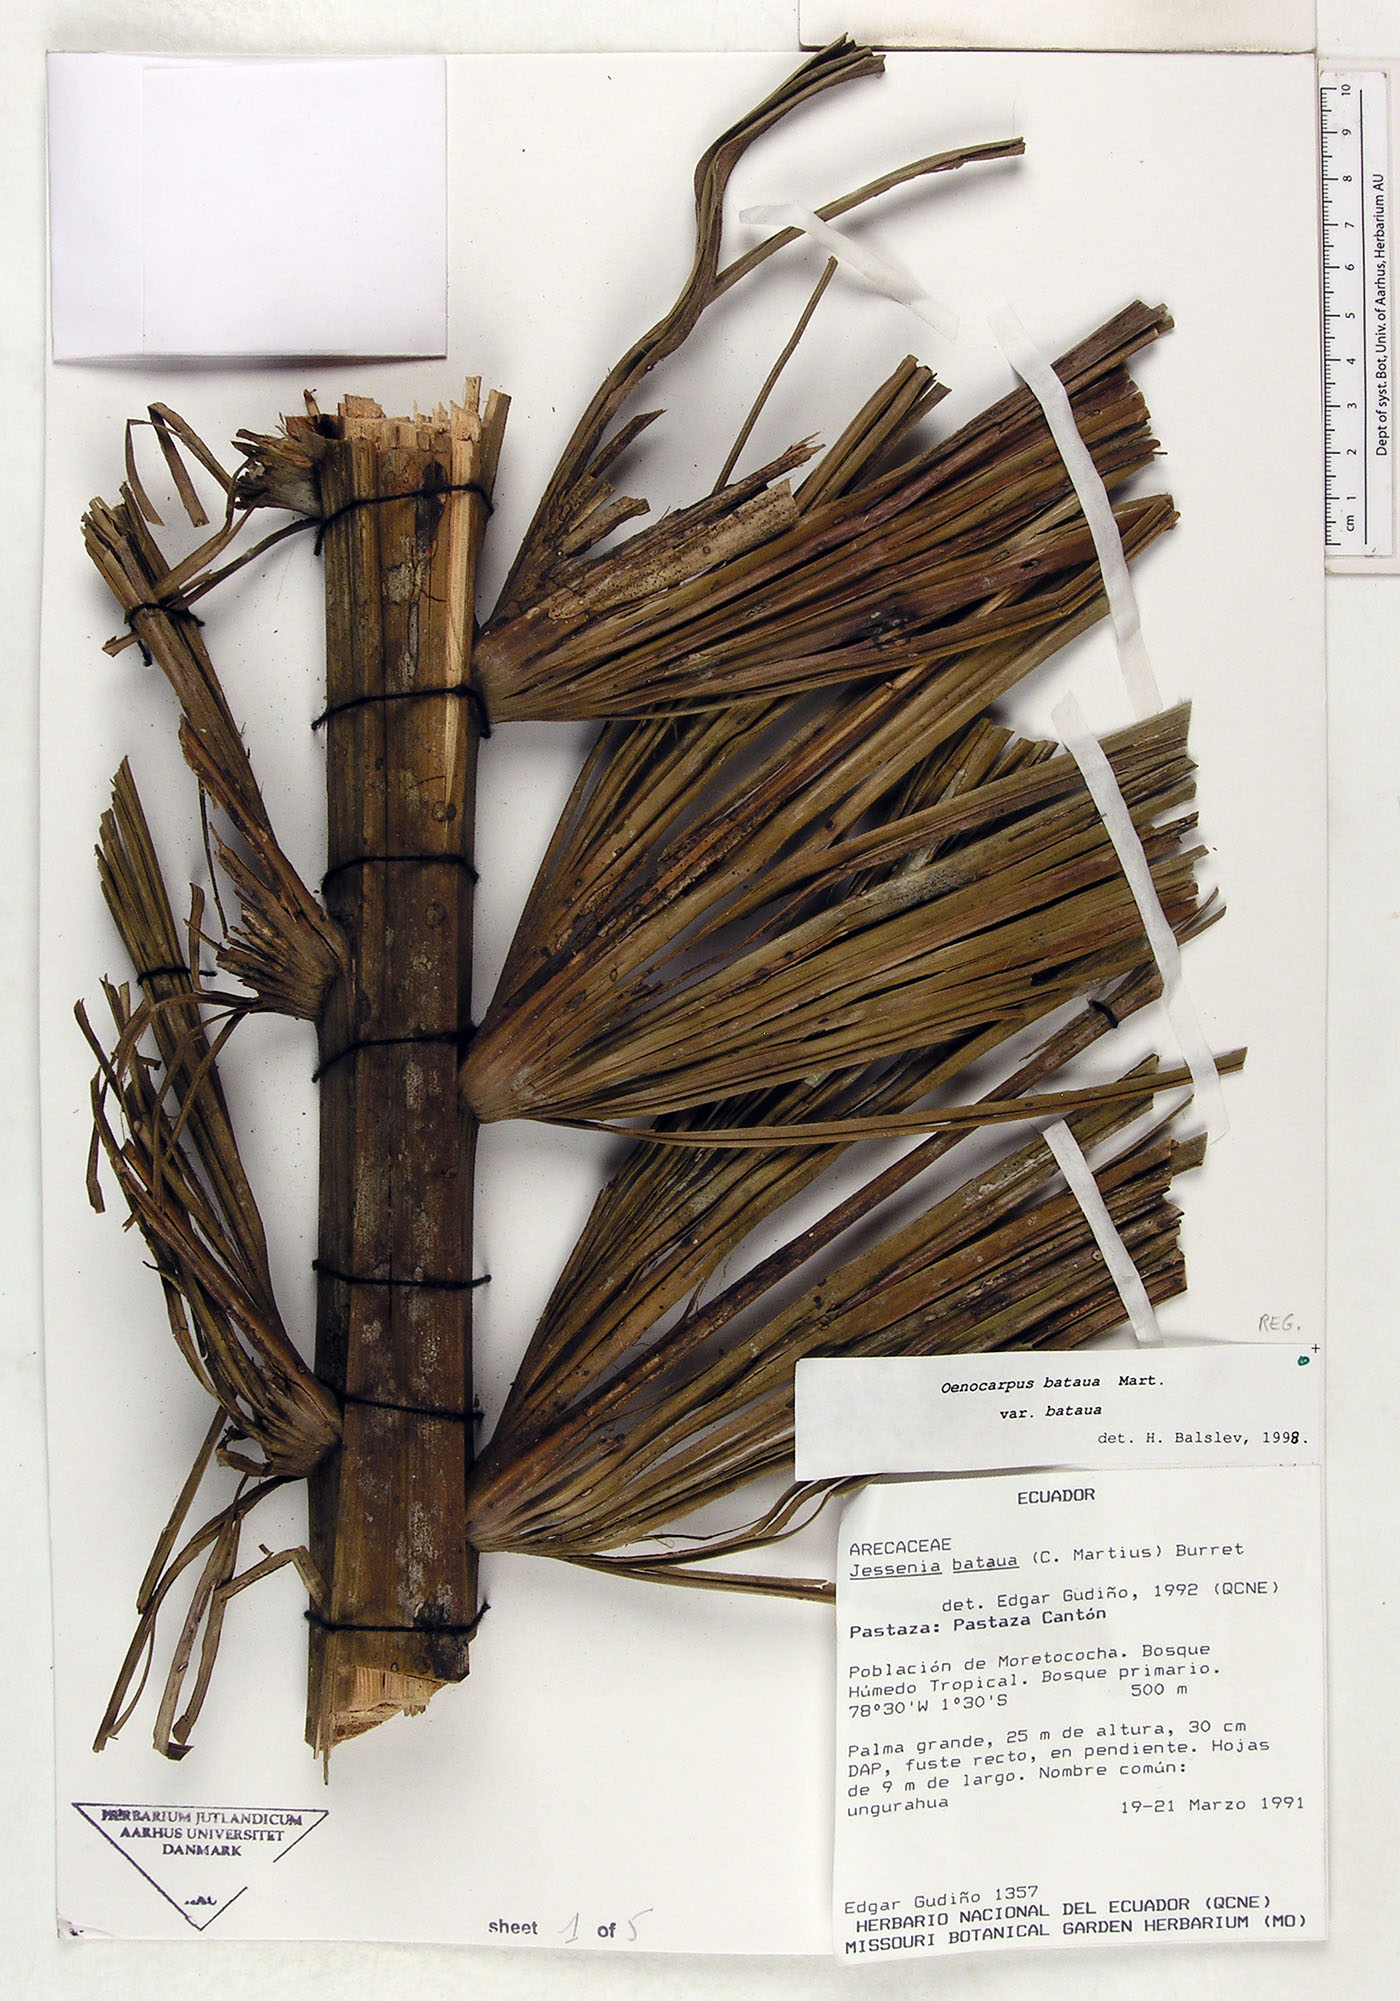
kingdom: Plantae
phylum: Tracheophyta
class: Liliopsida
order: Arecales
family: Arecaceae
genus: Oenocarpus
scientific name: Oenocarpus bataua
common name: Bataua palm
